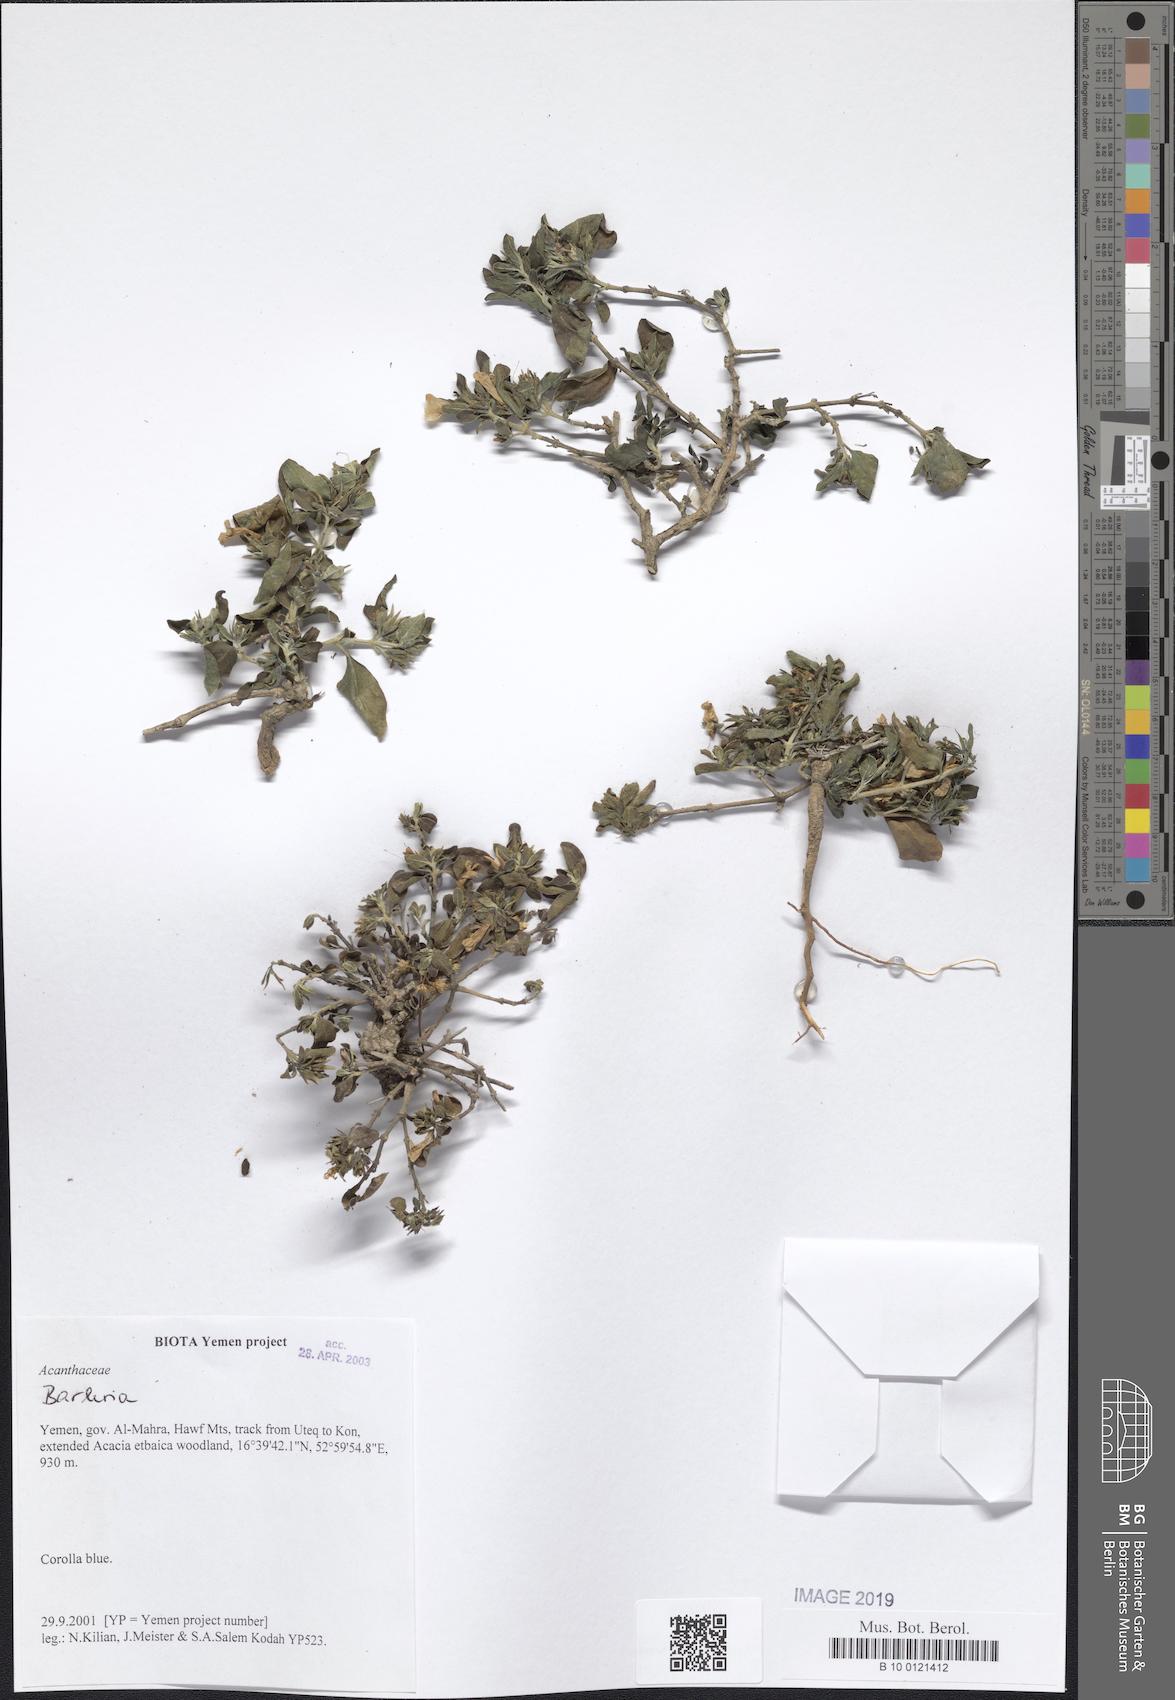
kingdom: Plantae
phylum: Tracheophyta
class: Magnoliopsida
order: Lamiales
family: Acanthaceae
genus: Barleria
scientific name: Barleria
